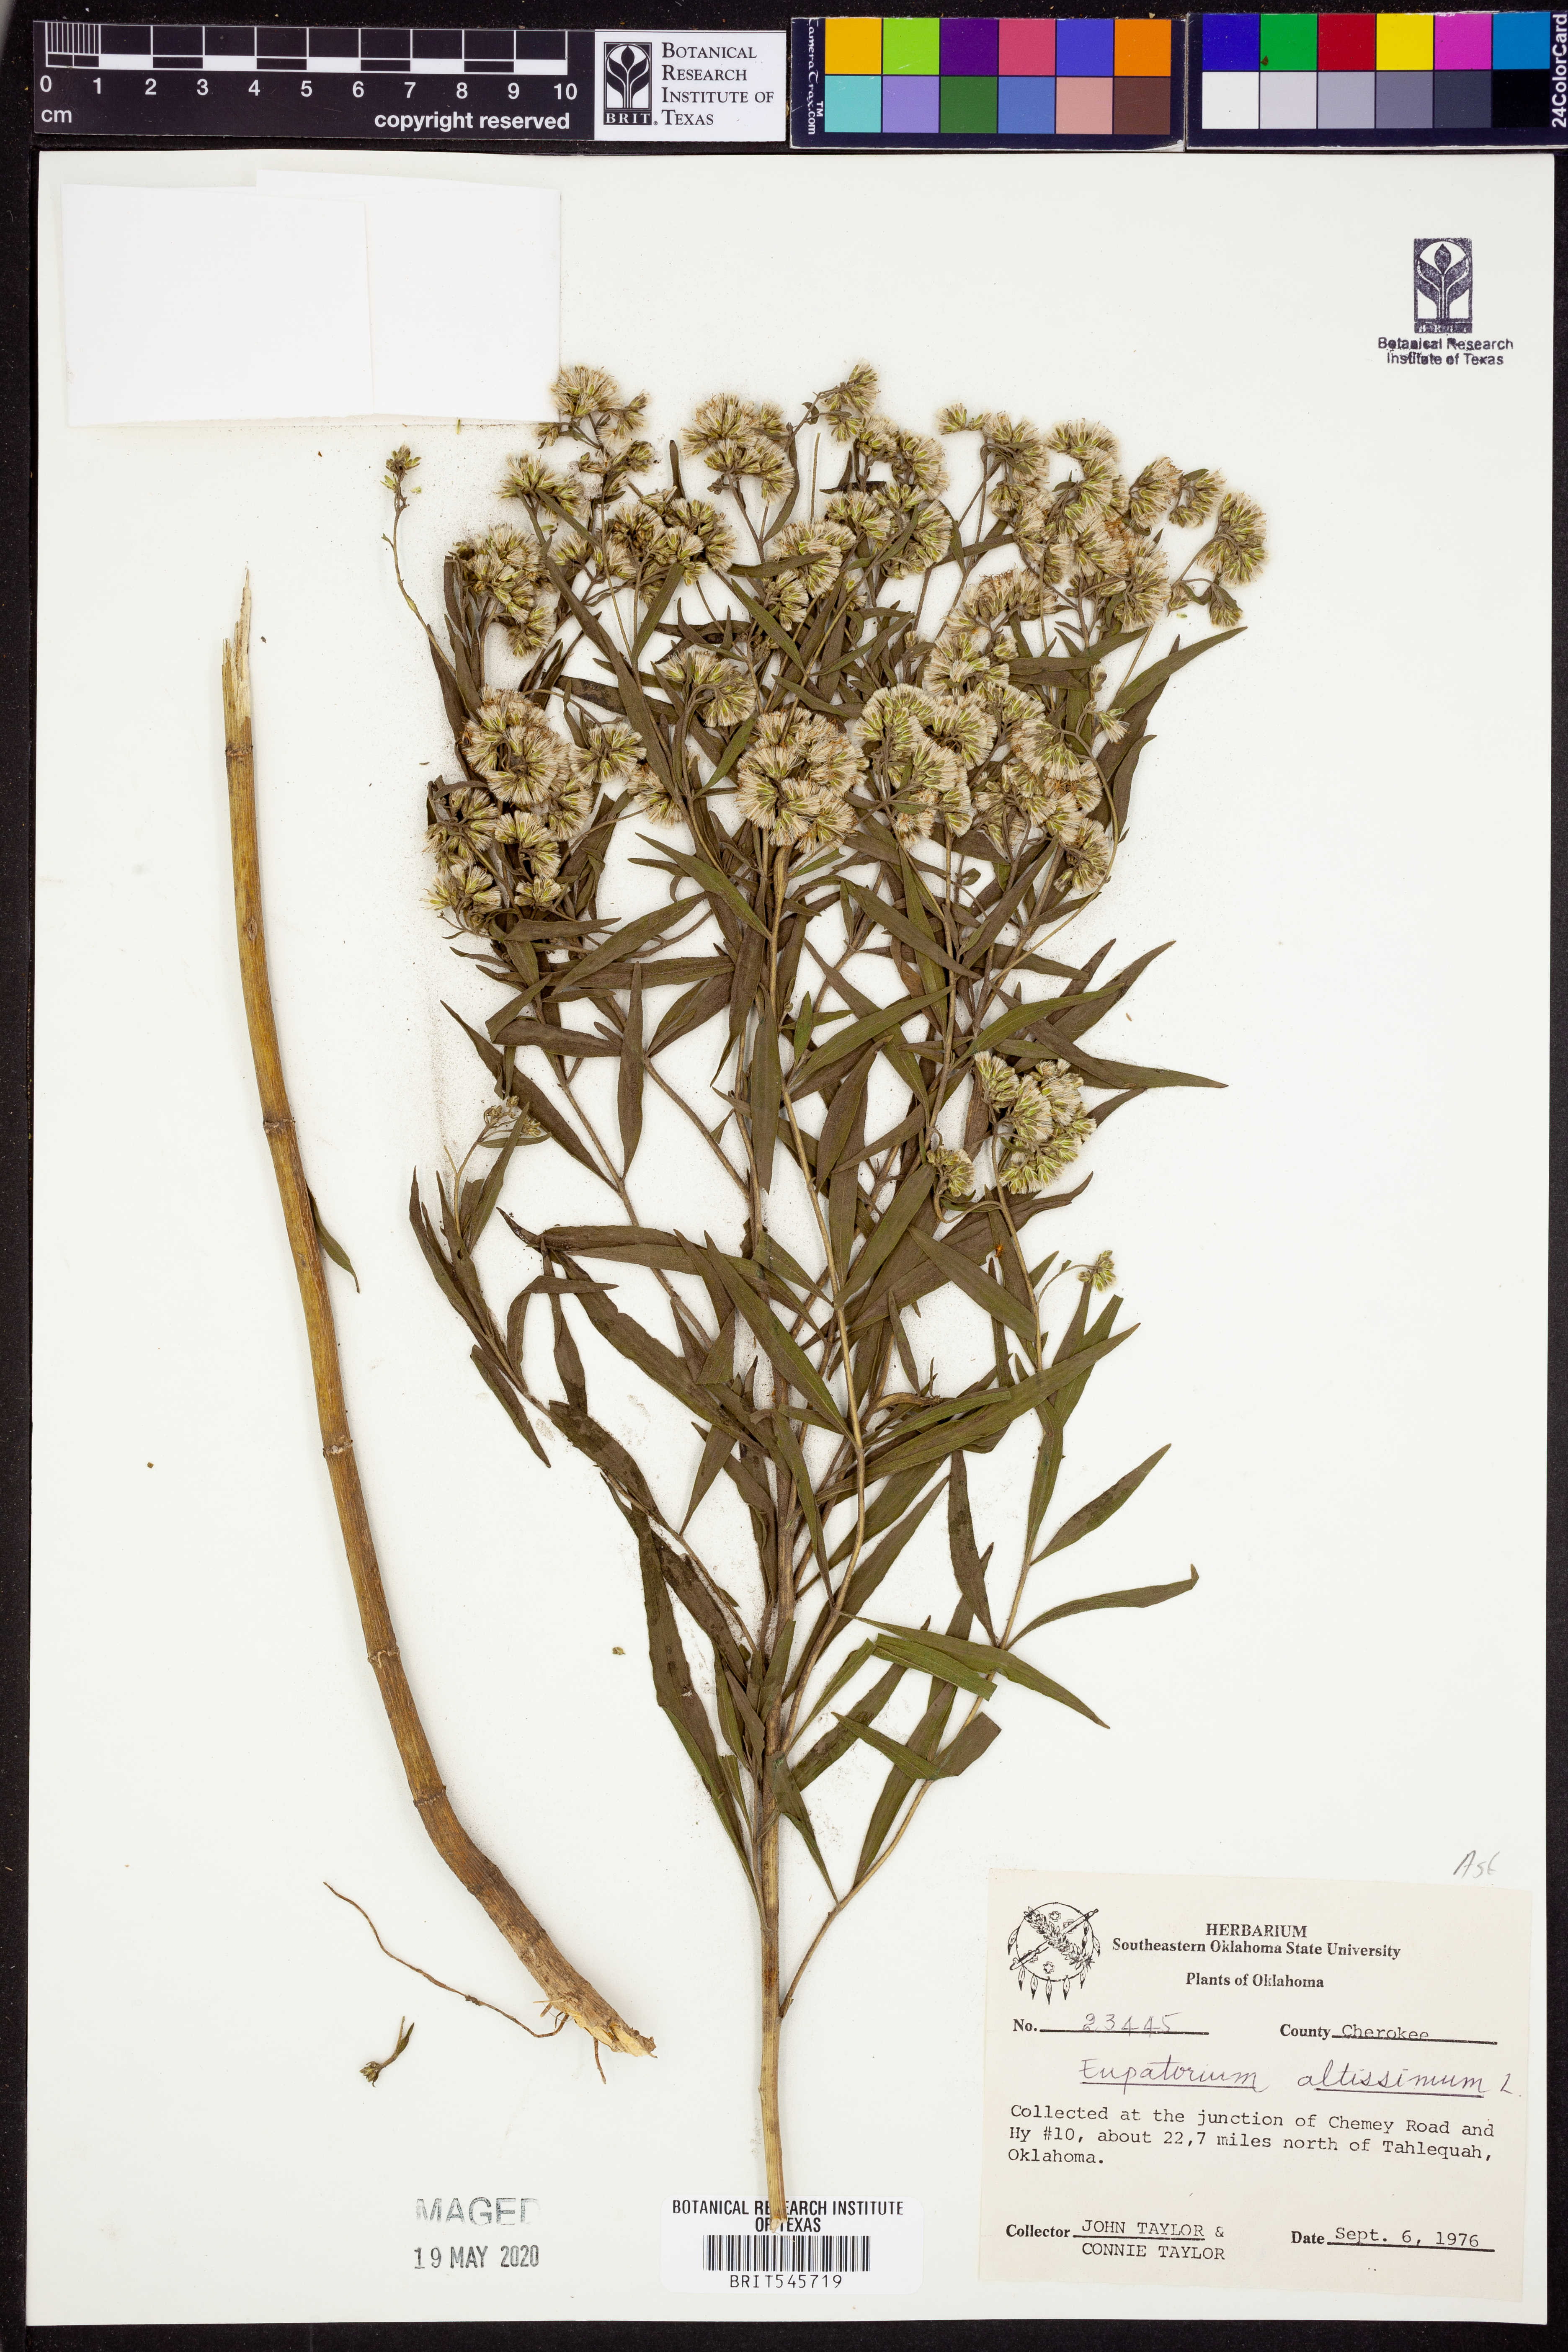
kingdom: Plantae
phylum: Tracheophyta
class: Magnoliopsida
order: Asterales
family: Asteraceae
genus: Eupatorium
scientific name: Eupatorium altissimum
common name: Tall thoroughwort
